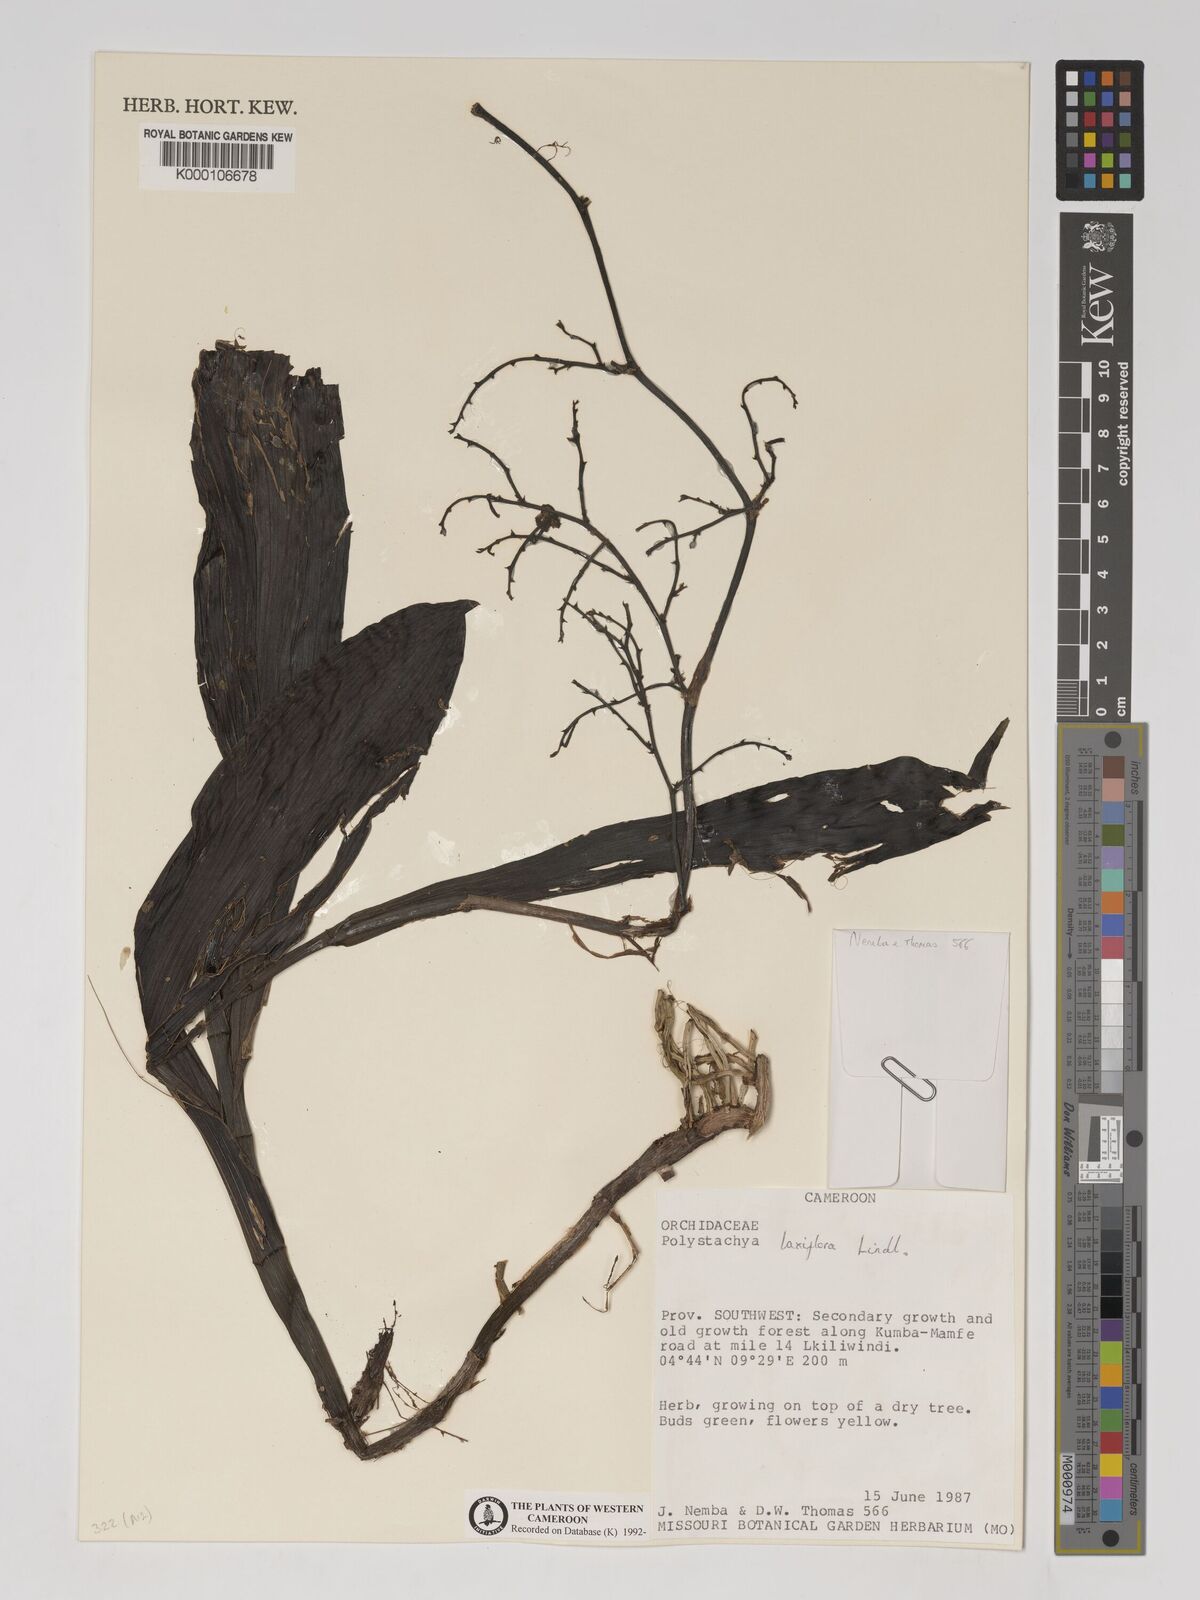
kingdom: Plantae
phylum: Tracheophyta
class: Liliopsida
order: Asparagales
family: Orchidaceae
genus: Polystachya
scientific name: Polystachya laxiflora
